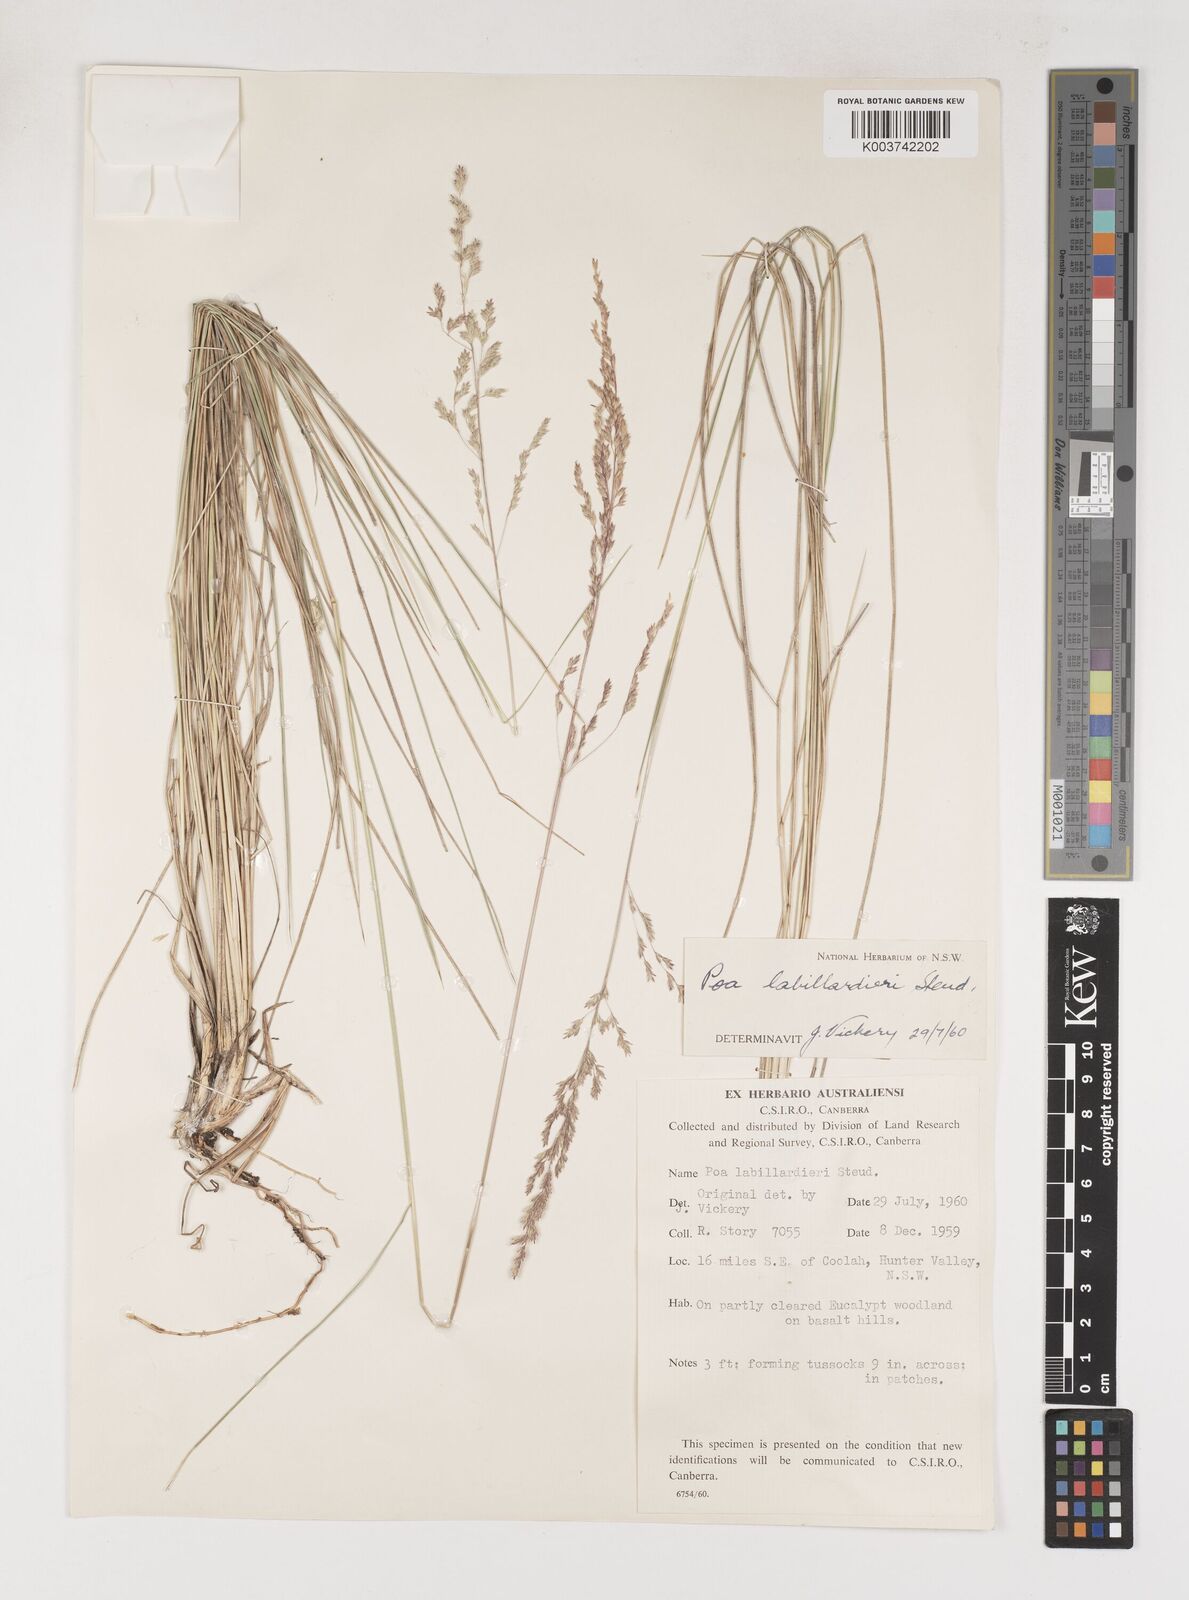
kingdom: Plantae
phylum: Tracheophyta
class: Liliopsida
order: Poales
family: Poaceae
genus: Poa
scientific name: Poa labillardierei
